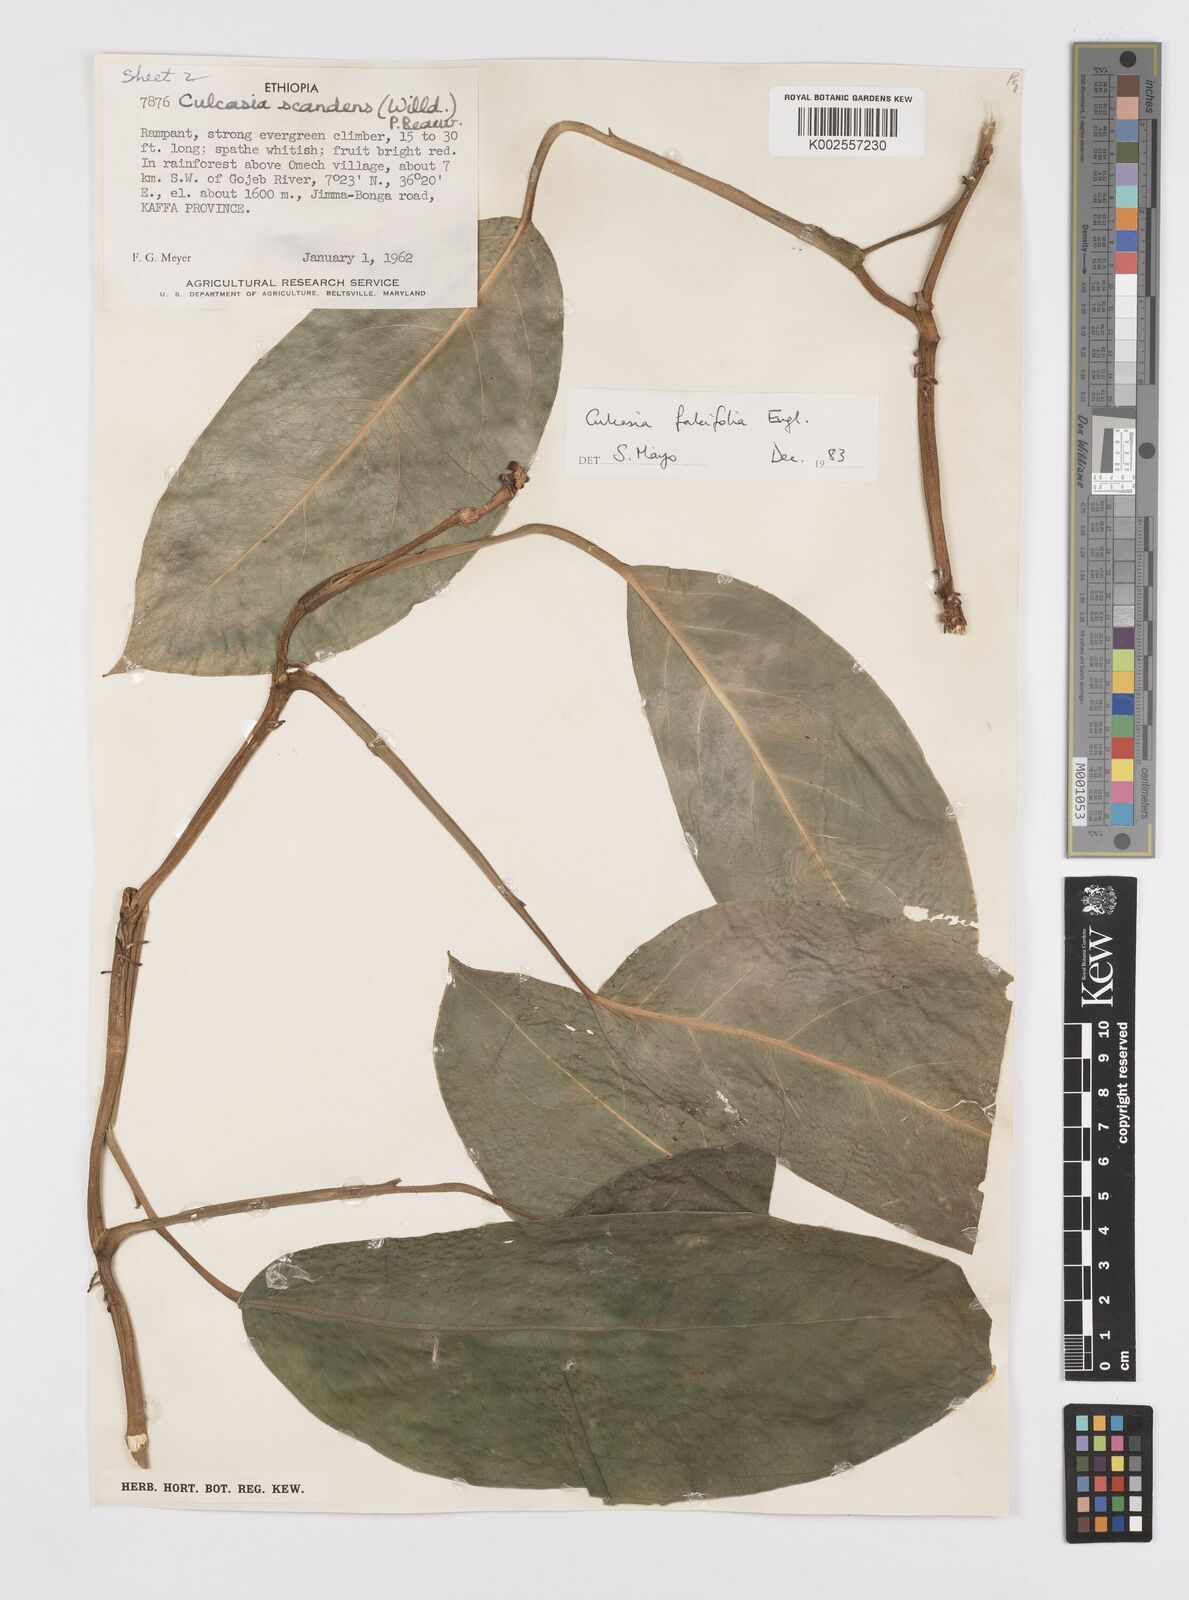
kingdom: Plantae
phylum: Tracheophyta
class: Liliopsida
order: Alismatales
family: Araceae
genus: Culcasia
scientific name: Culcasia falcifolia
